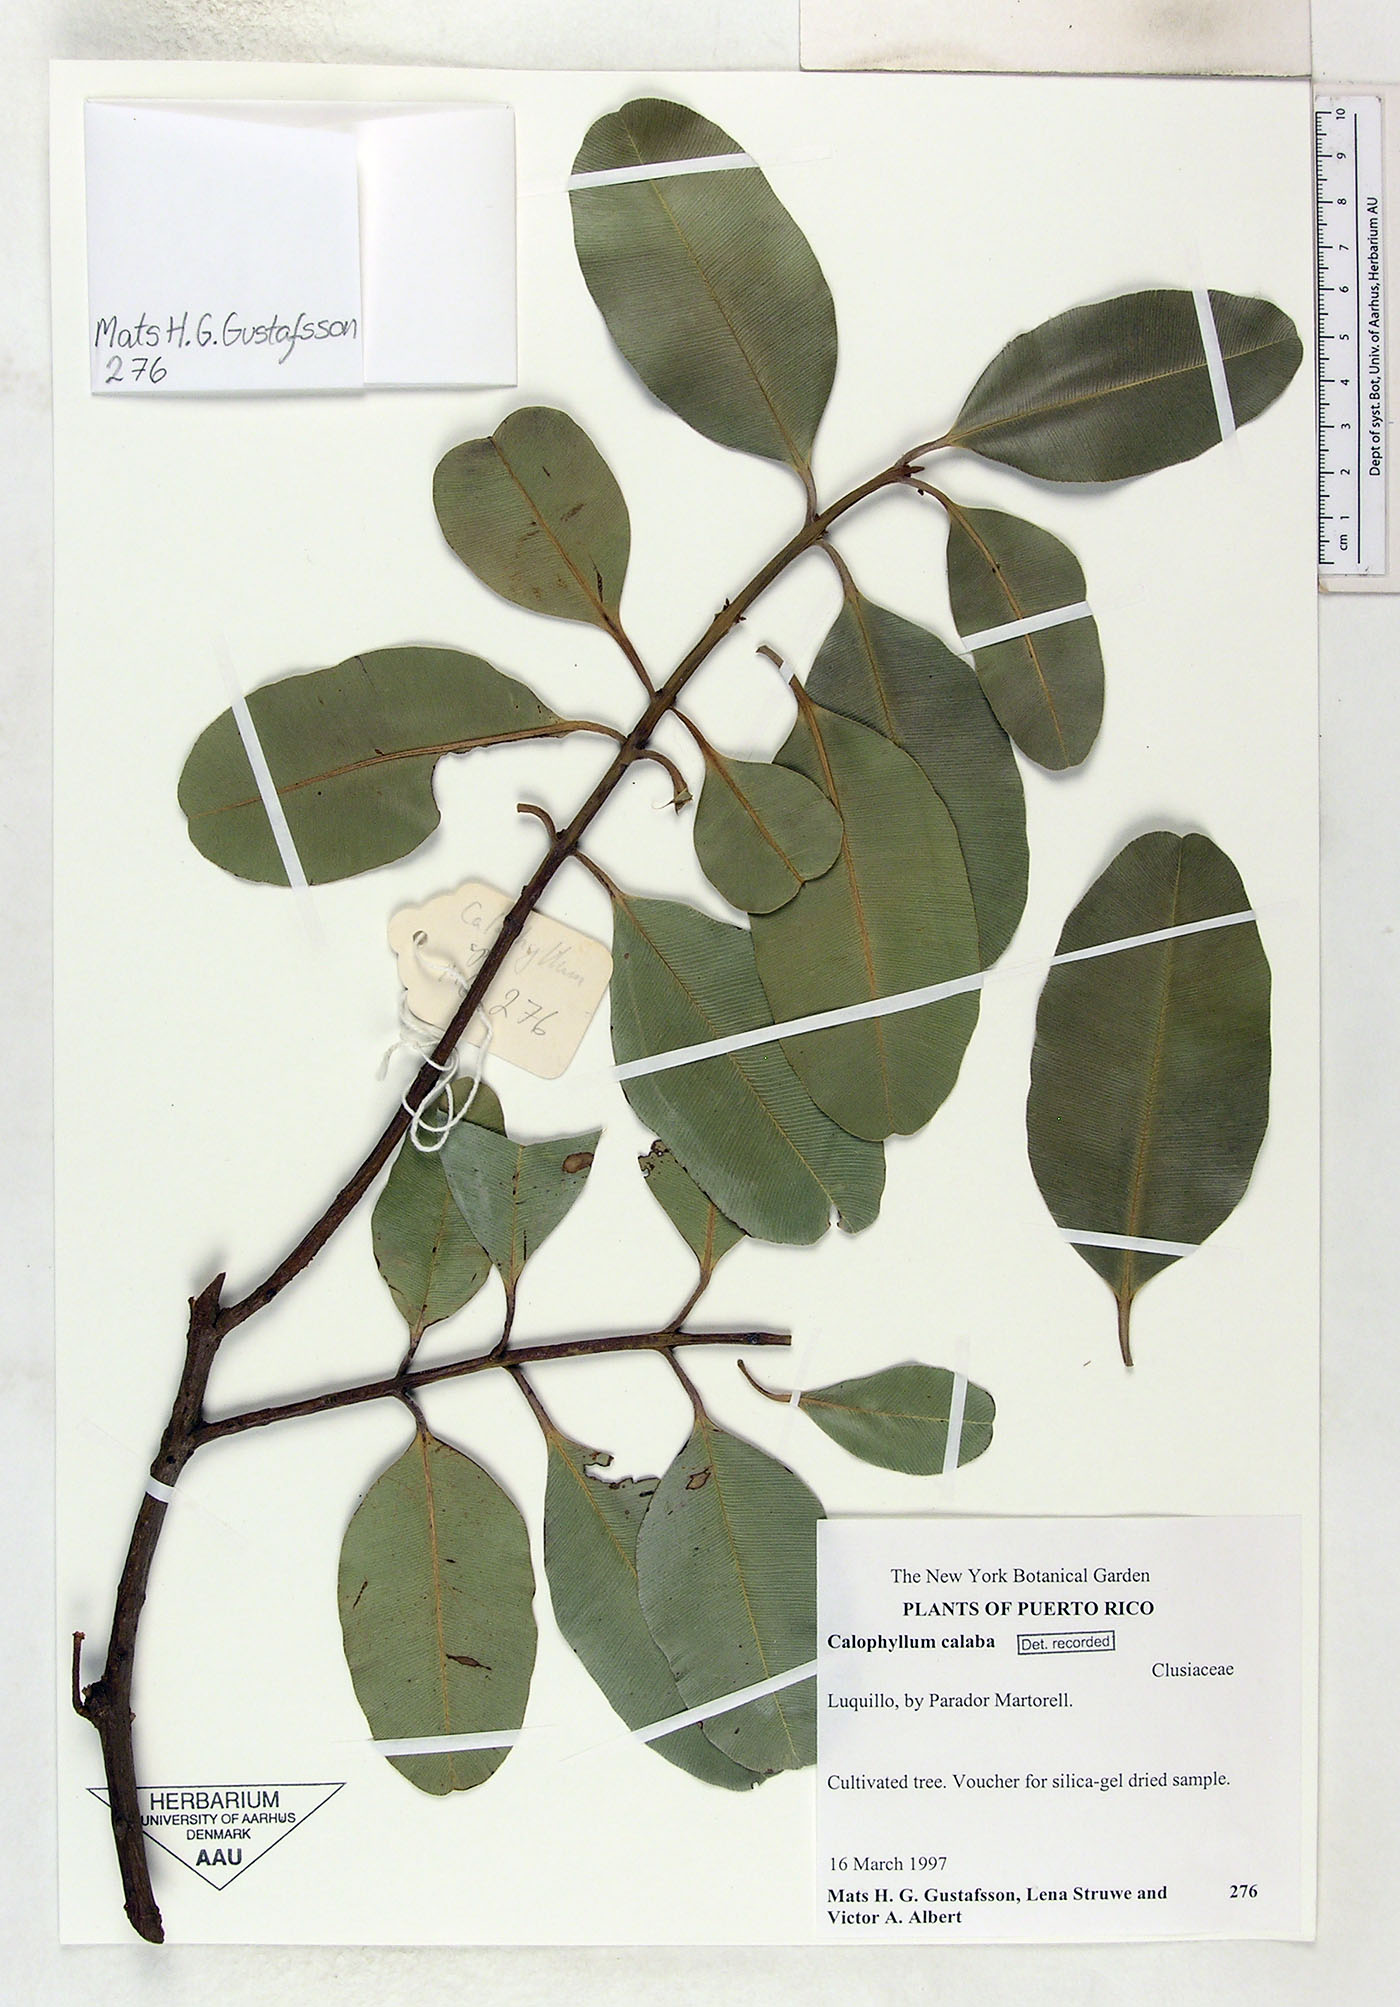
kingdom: Plantae
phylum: Tracheophyta
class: Magnoliopsida
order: Malpighiales
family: Calophyllaceae
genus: Calophyllum
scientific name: Calophyllum calaba
